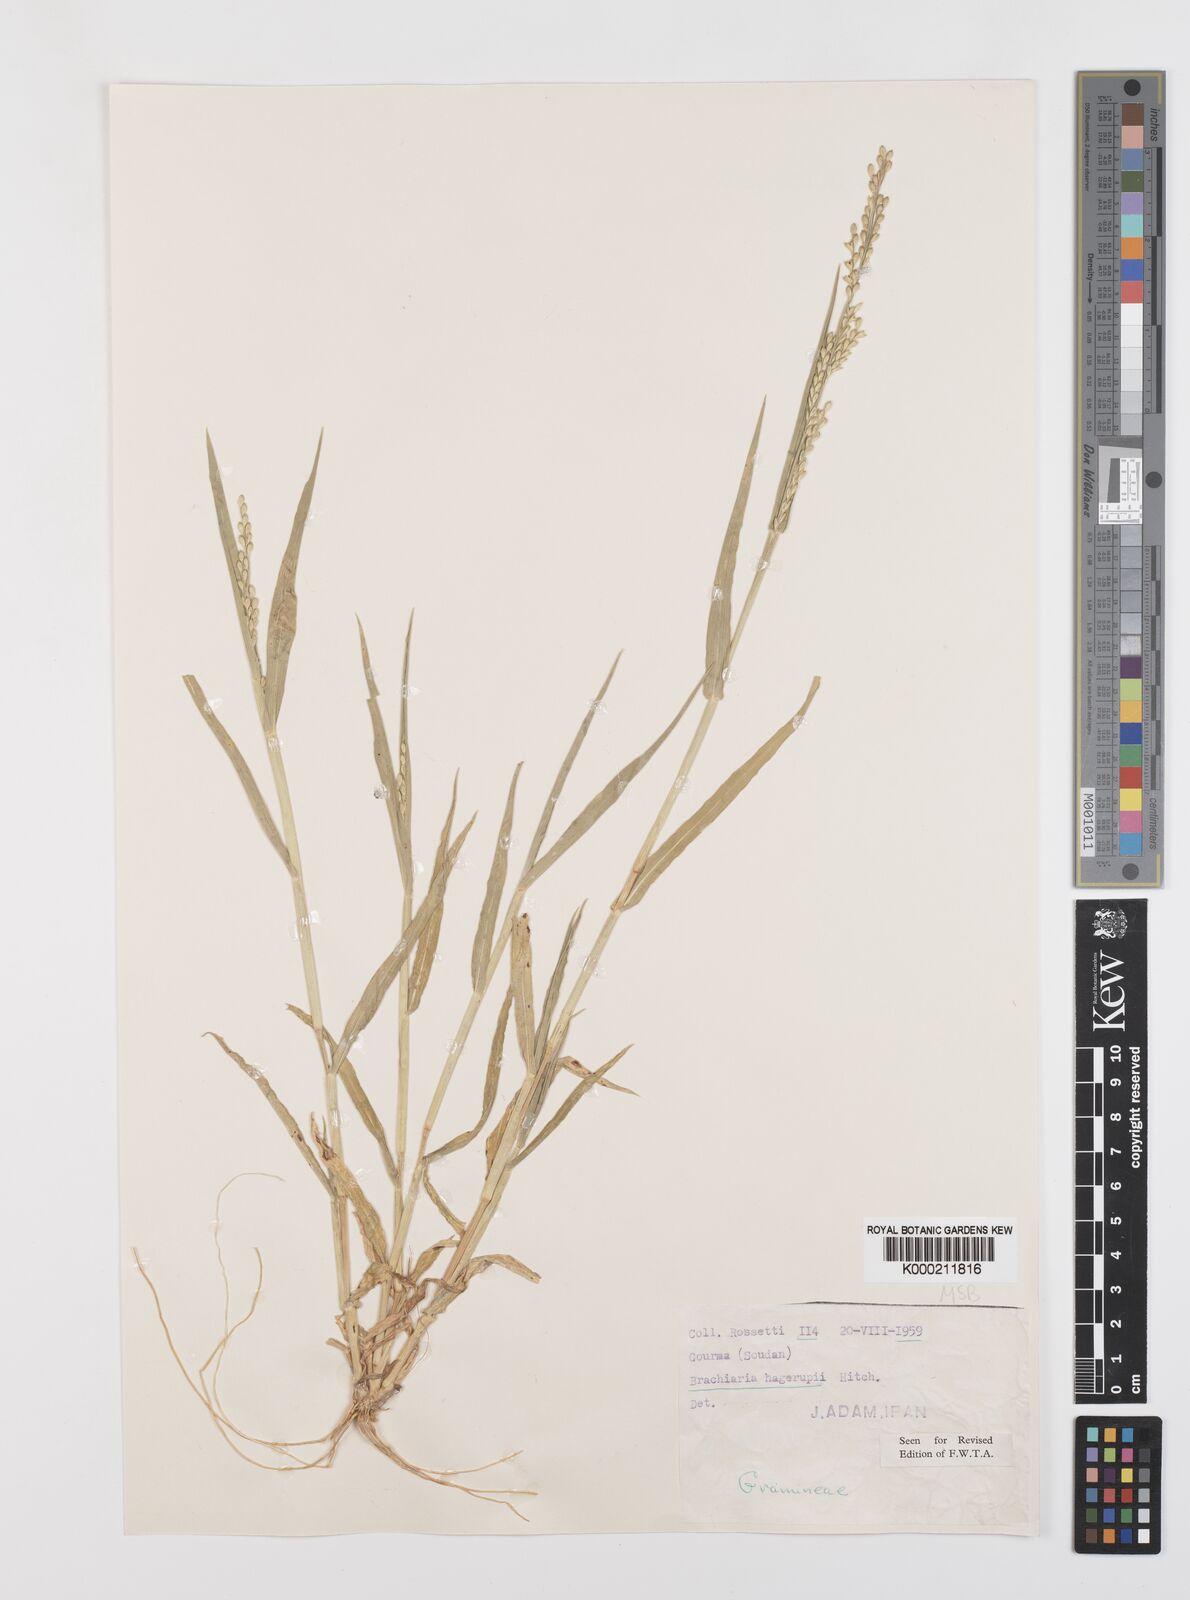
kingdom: Plantae
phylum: Tracheophyta
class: Liliopsida
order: Poales
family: Poaceae
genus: Urochloa
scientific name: Urochloa orthostachys
